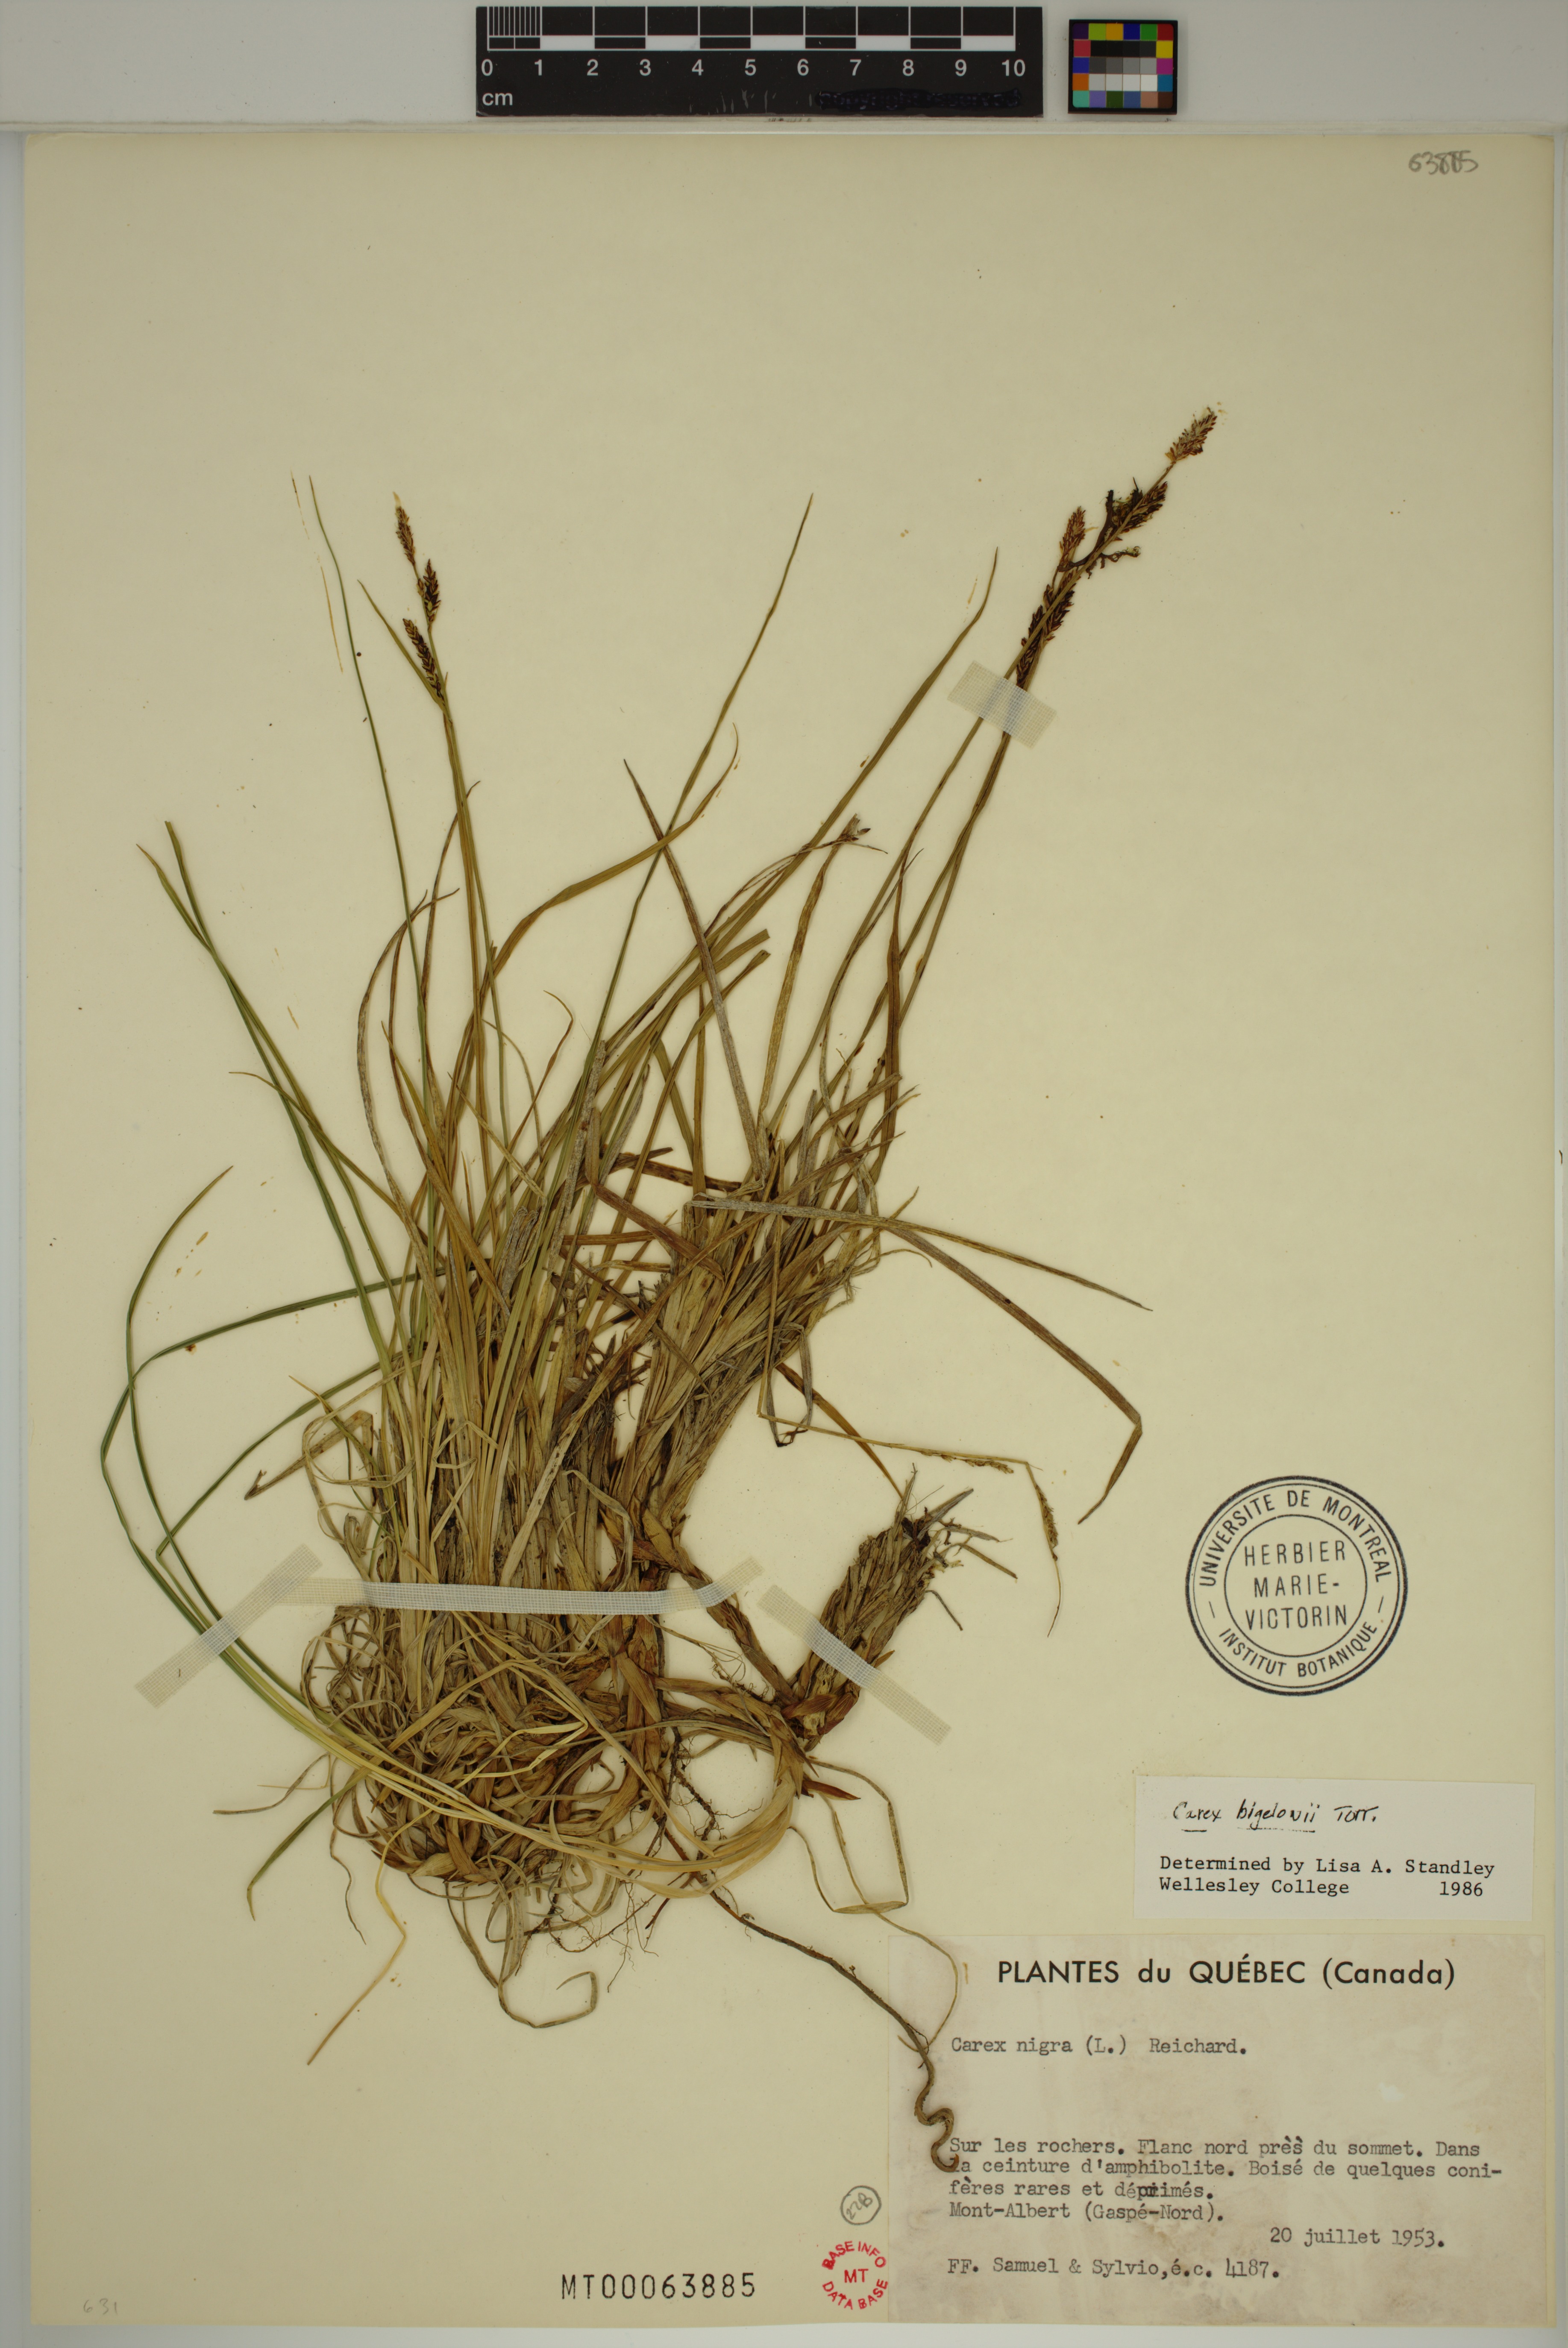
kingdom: Plantae
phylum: Tracheophyta
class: Liliopsida
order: Poales
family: Cyperaceae
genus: Carex
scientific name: Carex bigelowii
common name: Stiff sedge
